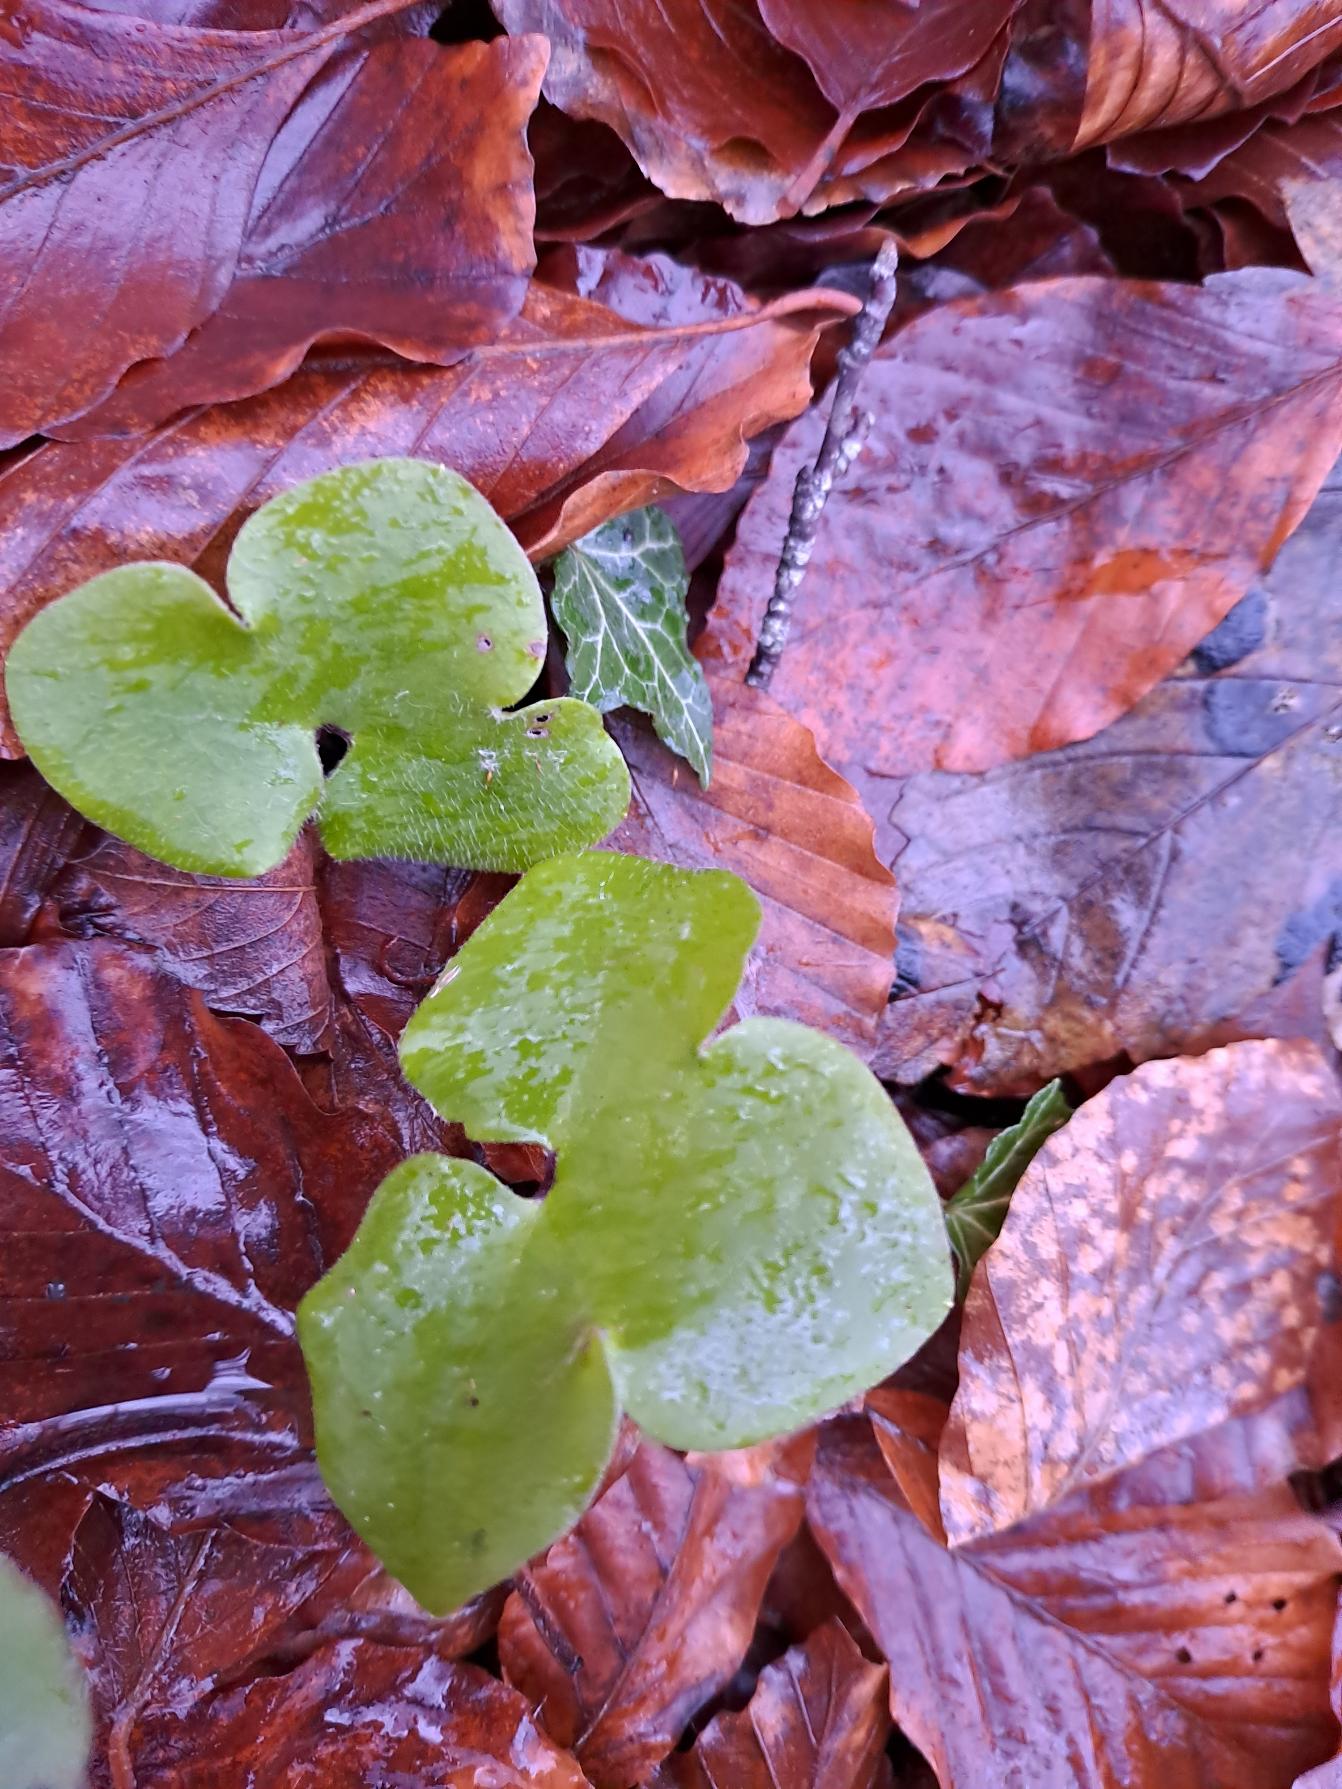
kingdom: Plantae
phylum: Tracheophyta
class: Magnoliopsida
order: Ranunculales
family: Ranunculaceae
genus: Hepatica
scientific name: Hepatica nobilis
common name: Blå anemone
